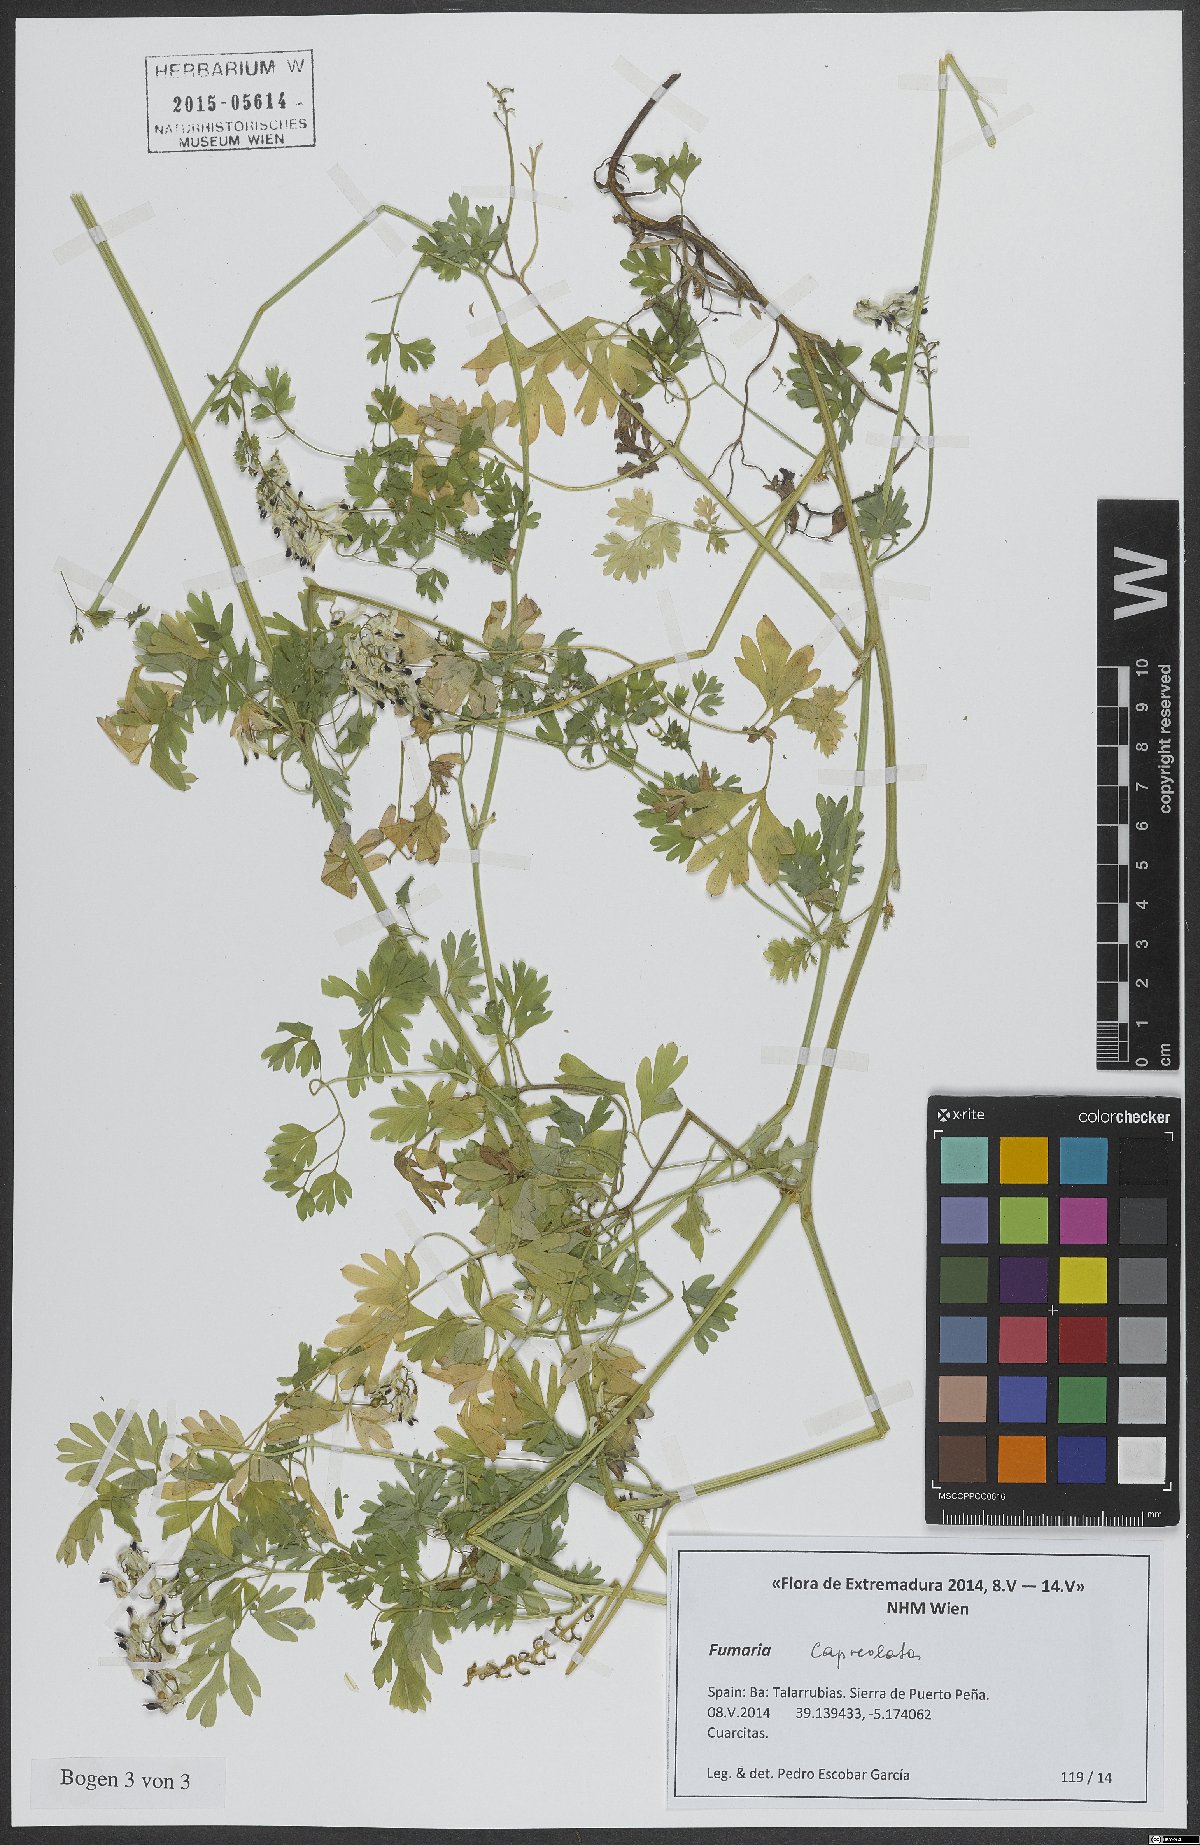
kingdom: Plantae
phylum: Tracheophyta
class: Magnoliopsida
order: Ranunculales
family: Papaveraceae
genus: Fumaria
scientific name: Fumaria capreolata
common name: White ramping-fumitory
